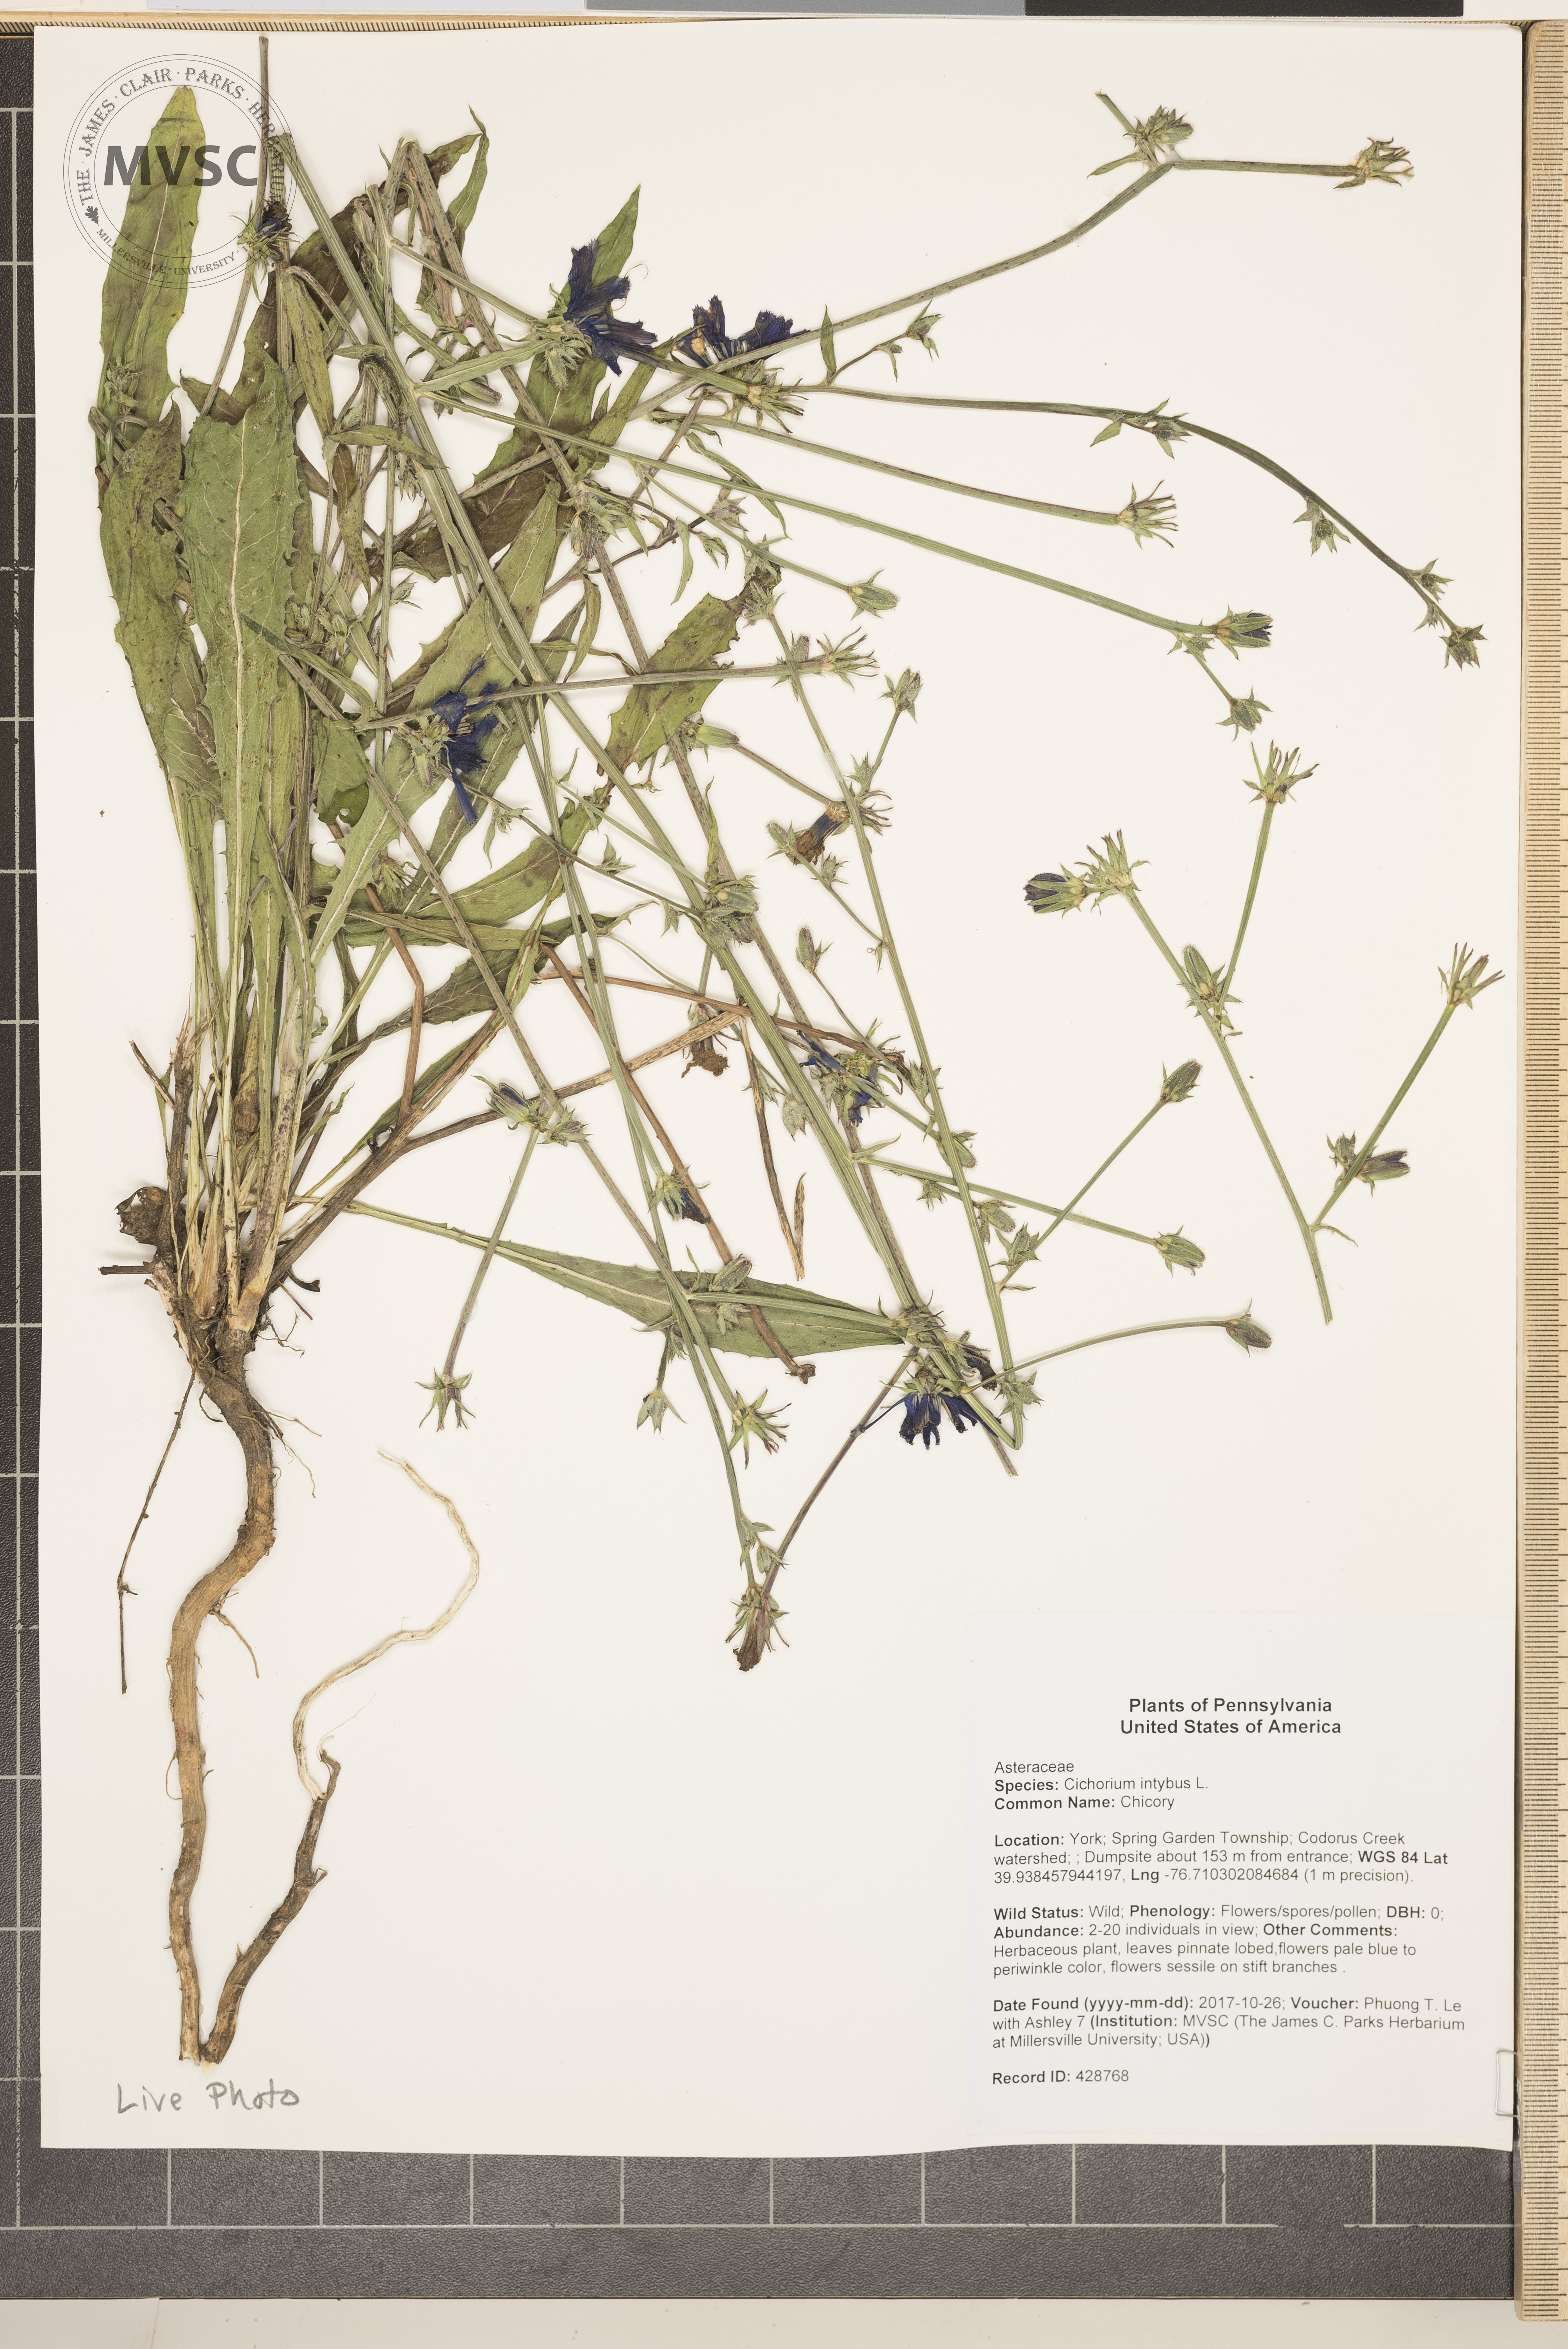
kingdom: Plantae
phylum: Tracheophyta
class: Magnoliopsida
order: Asterales
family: Asteraceae
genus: Cichorium
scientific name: Cichorium intybus
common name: Chicory
